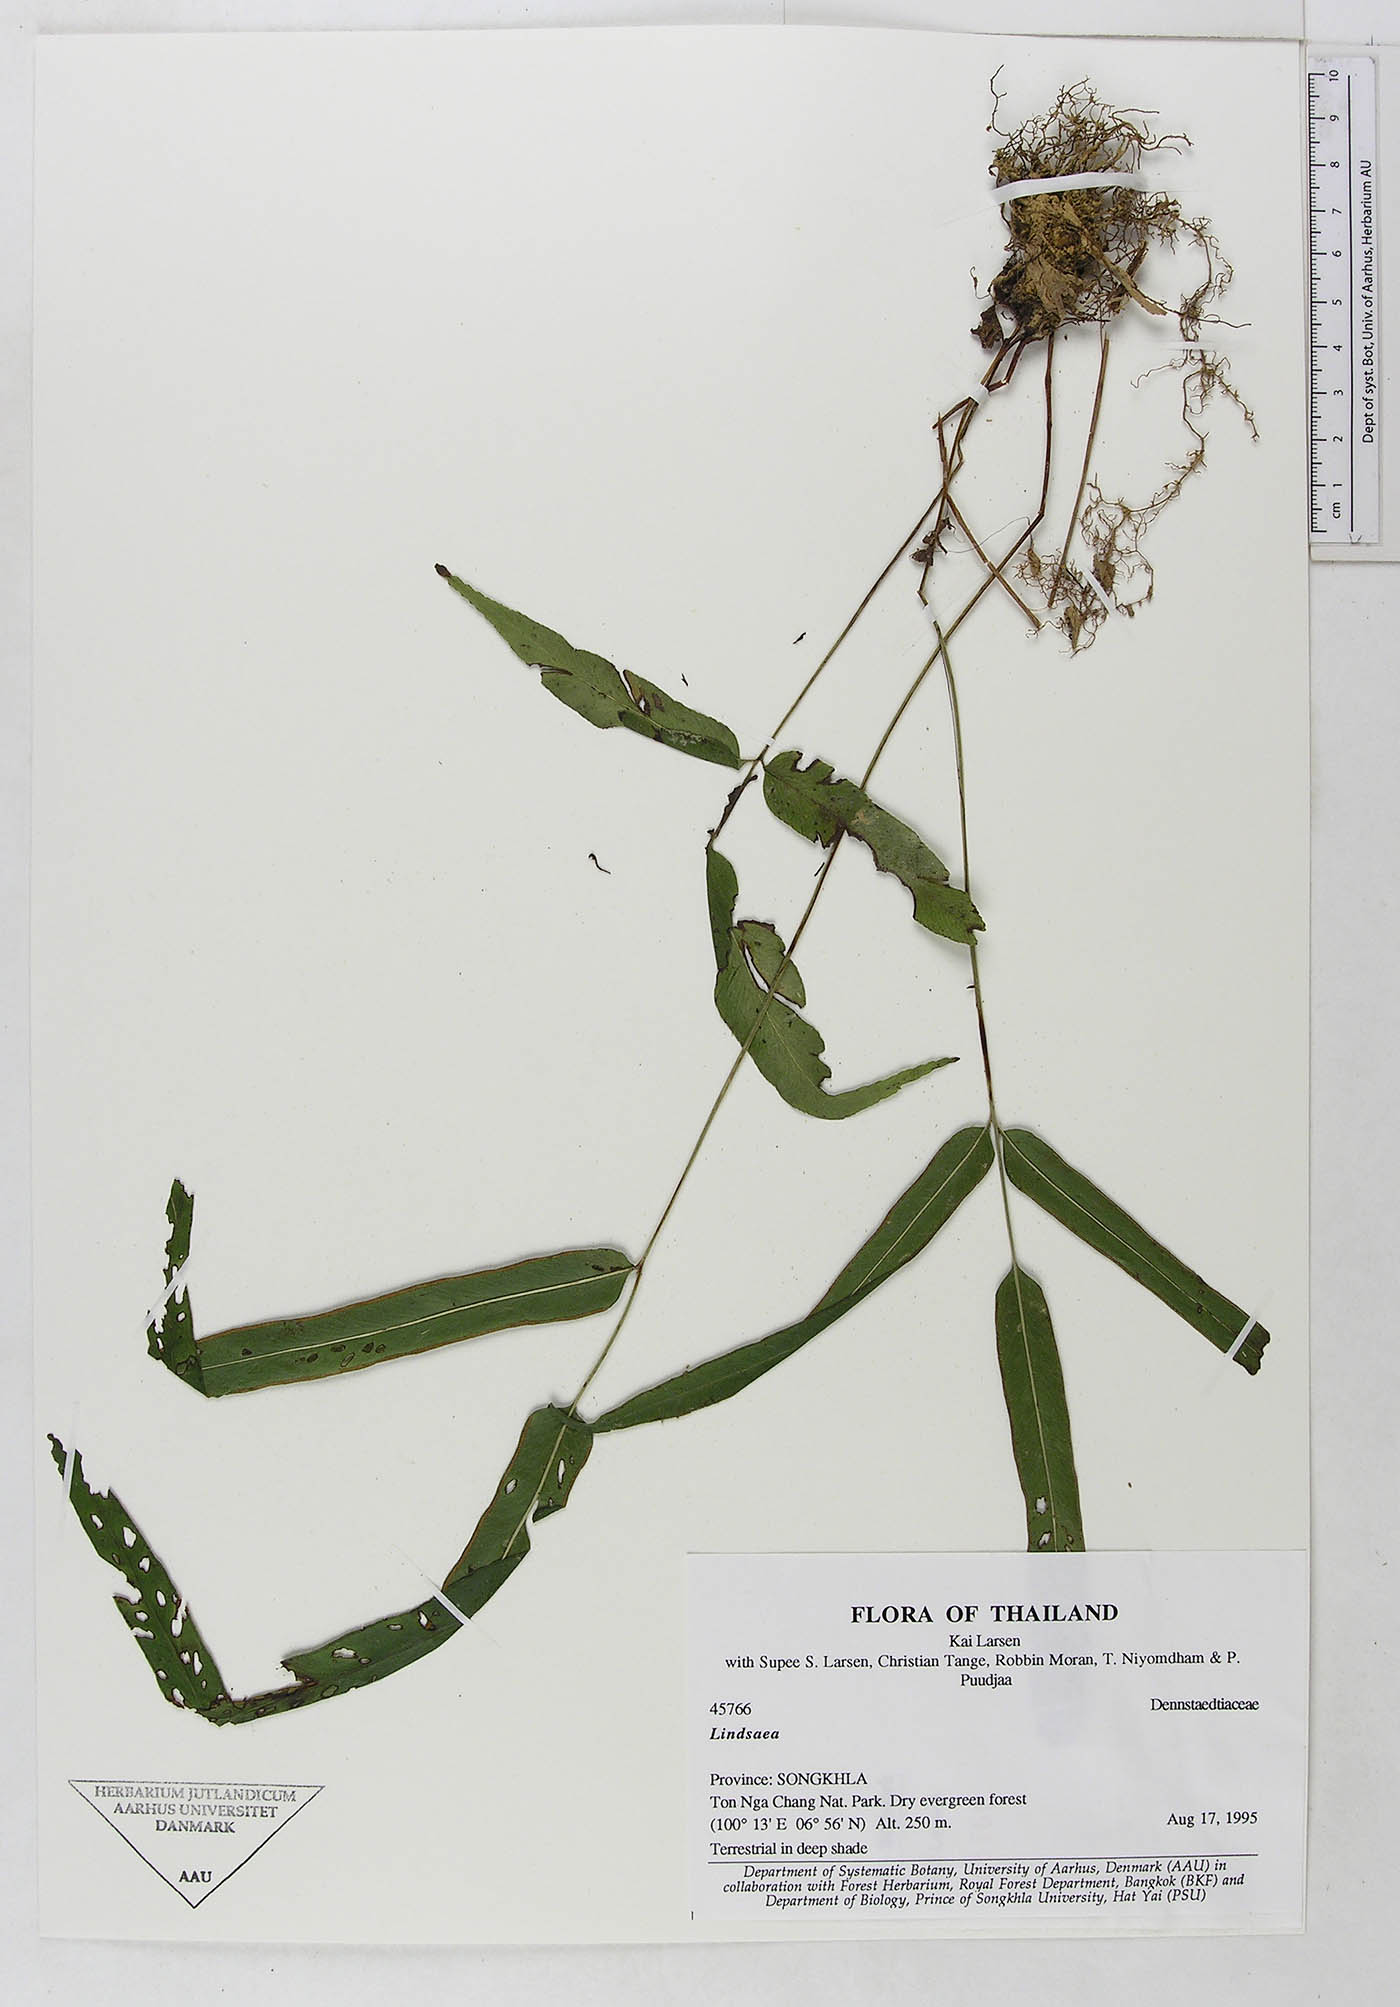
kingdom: Plantae
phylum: Tracheophyta
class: Polypodiopsida
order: Polypodiales
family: Dennstaedtiaceae
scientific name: Dennstaedtiaceae
